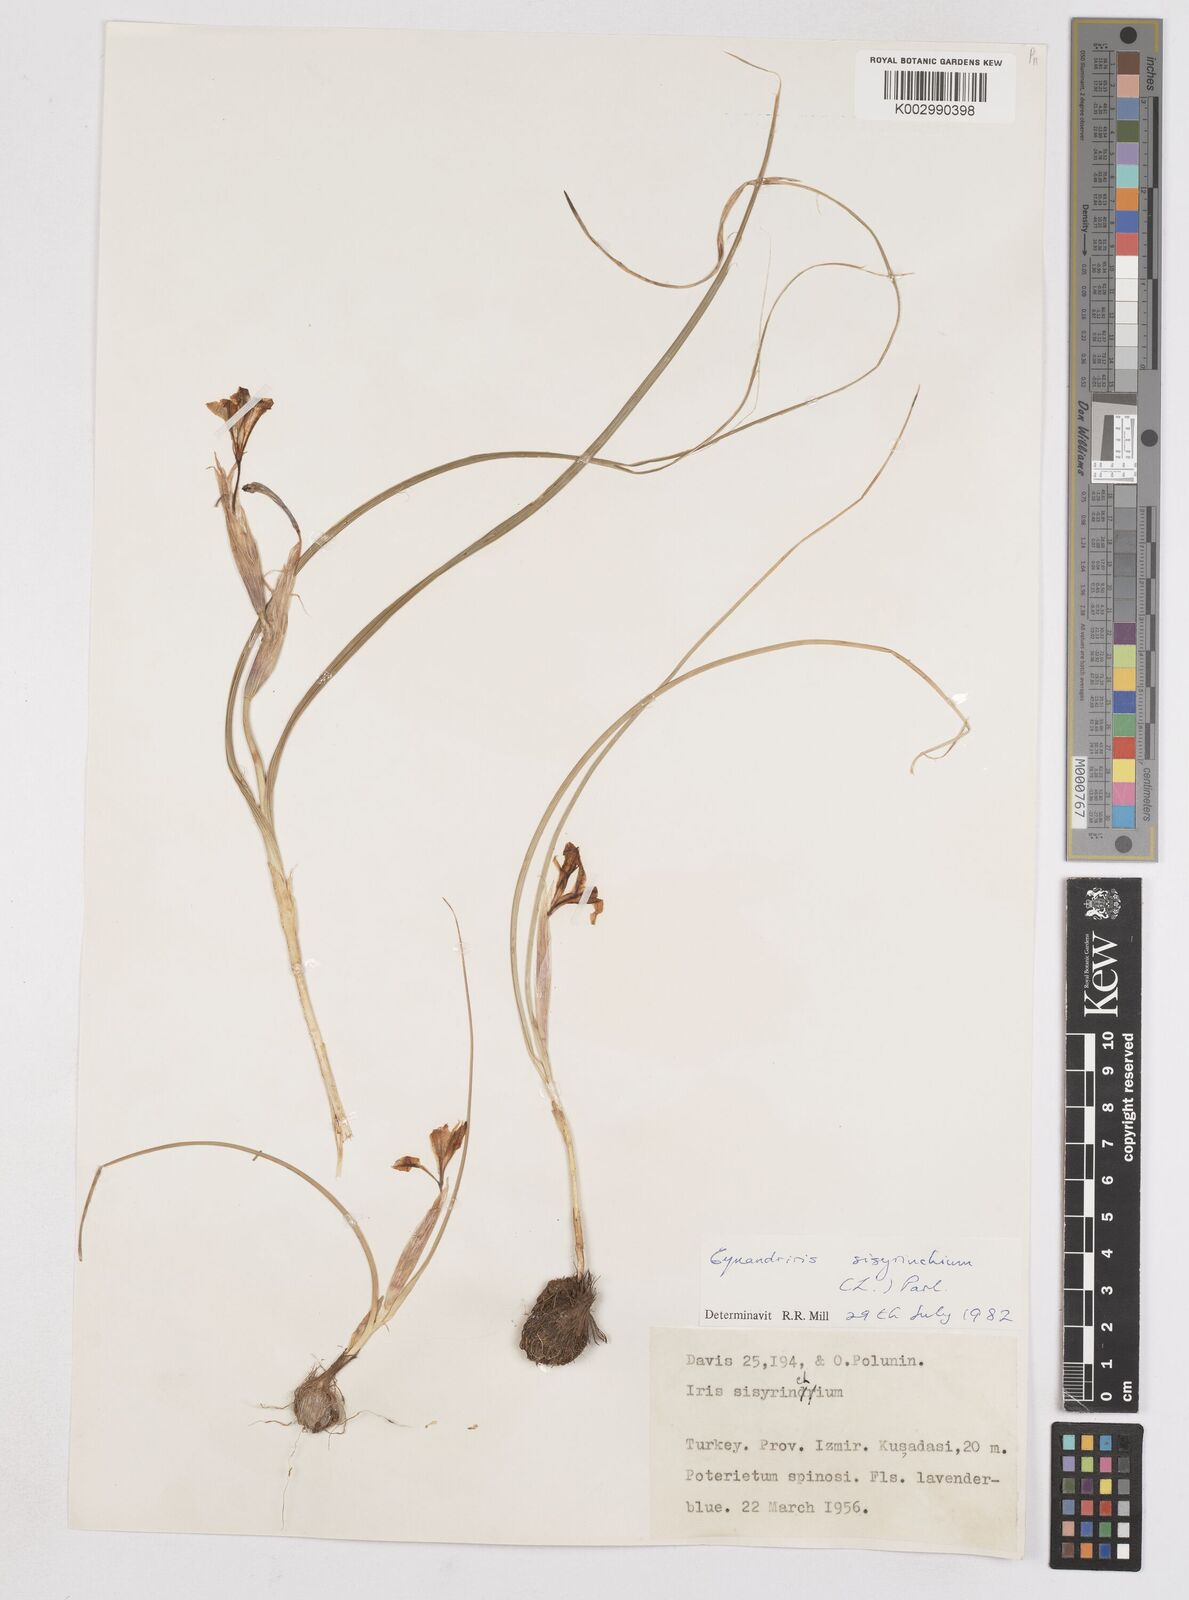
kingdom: Plantae
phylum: Tracheophyta
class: Liliopsida
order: Asparagales
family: Iridaceae
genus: Moraea
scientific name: Moraea sisyrinchium
